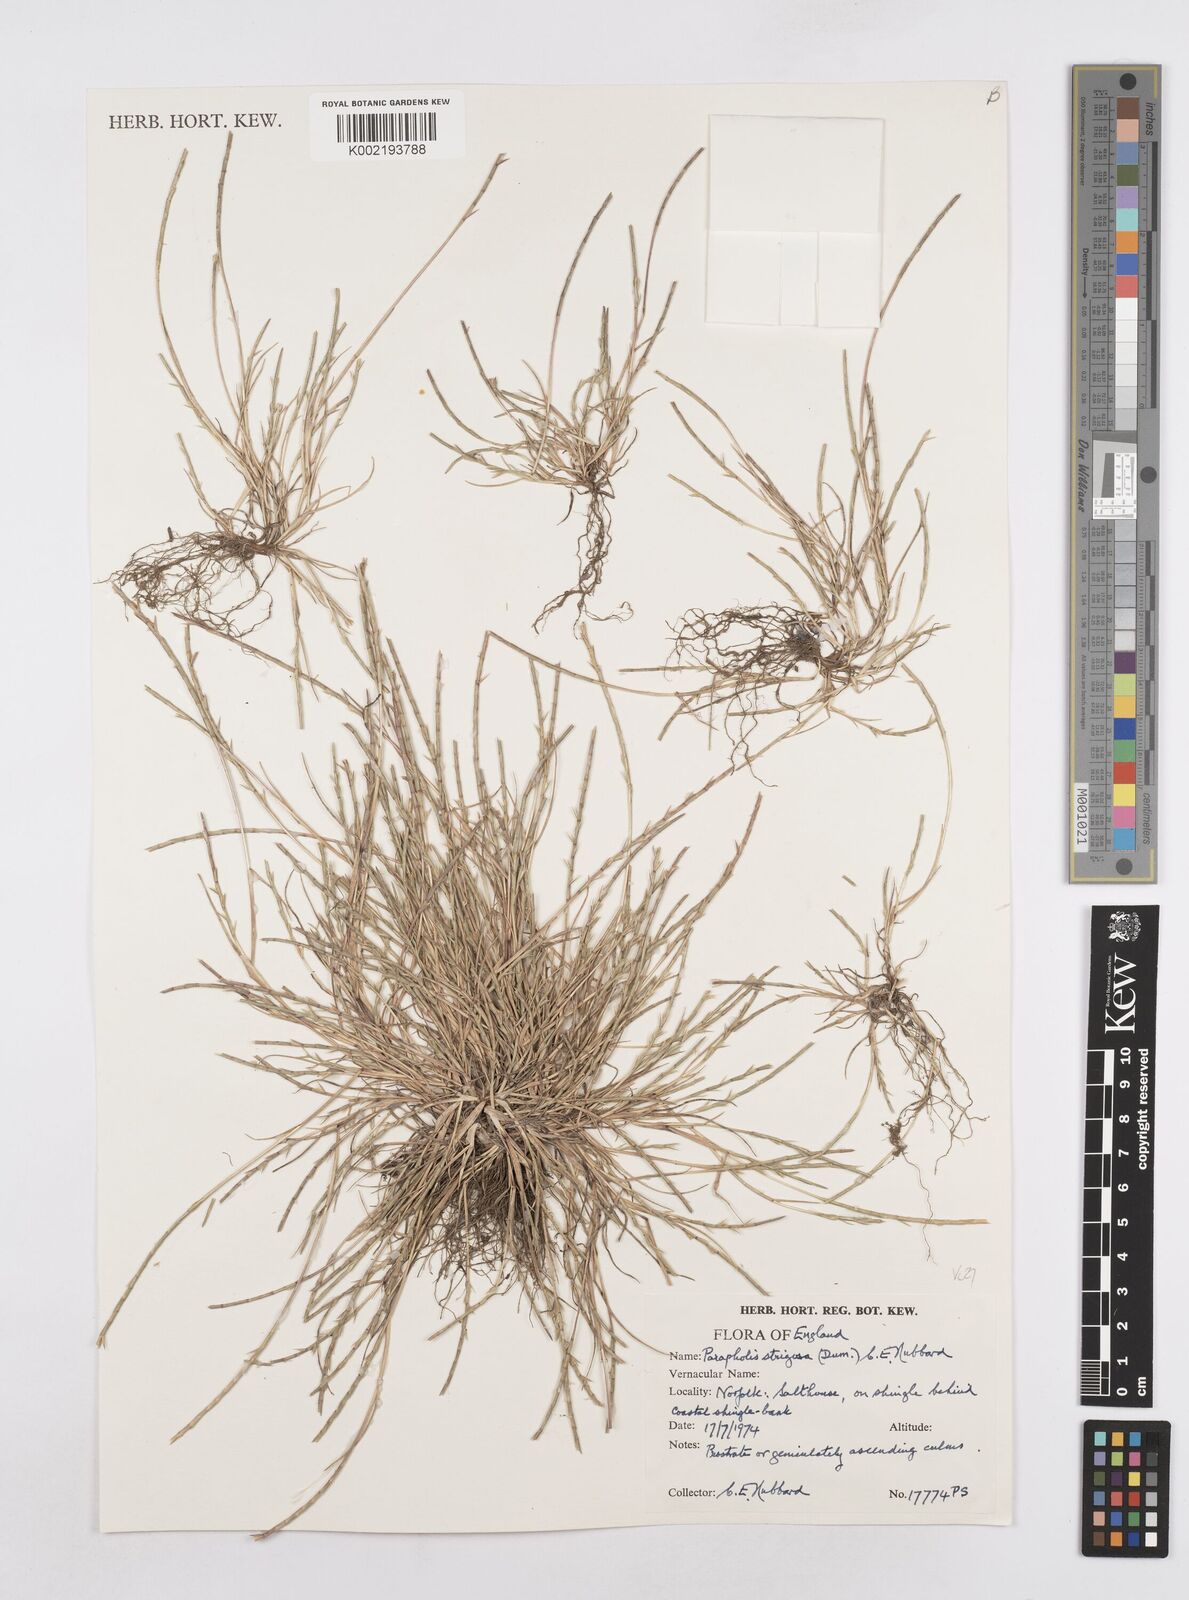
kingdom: Plantae
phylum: Tracheophyta
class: Liliopsida
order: Poales
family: Poaceae
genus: Parapholis
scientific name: Parapholis strigosa
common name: Hard-grass
